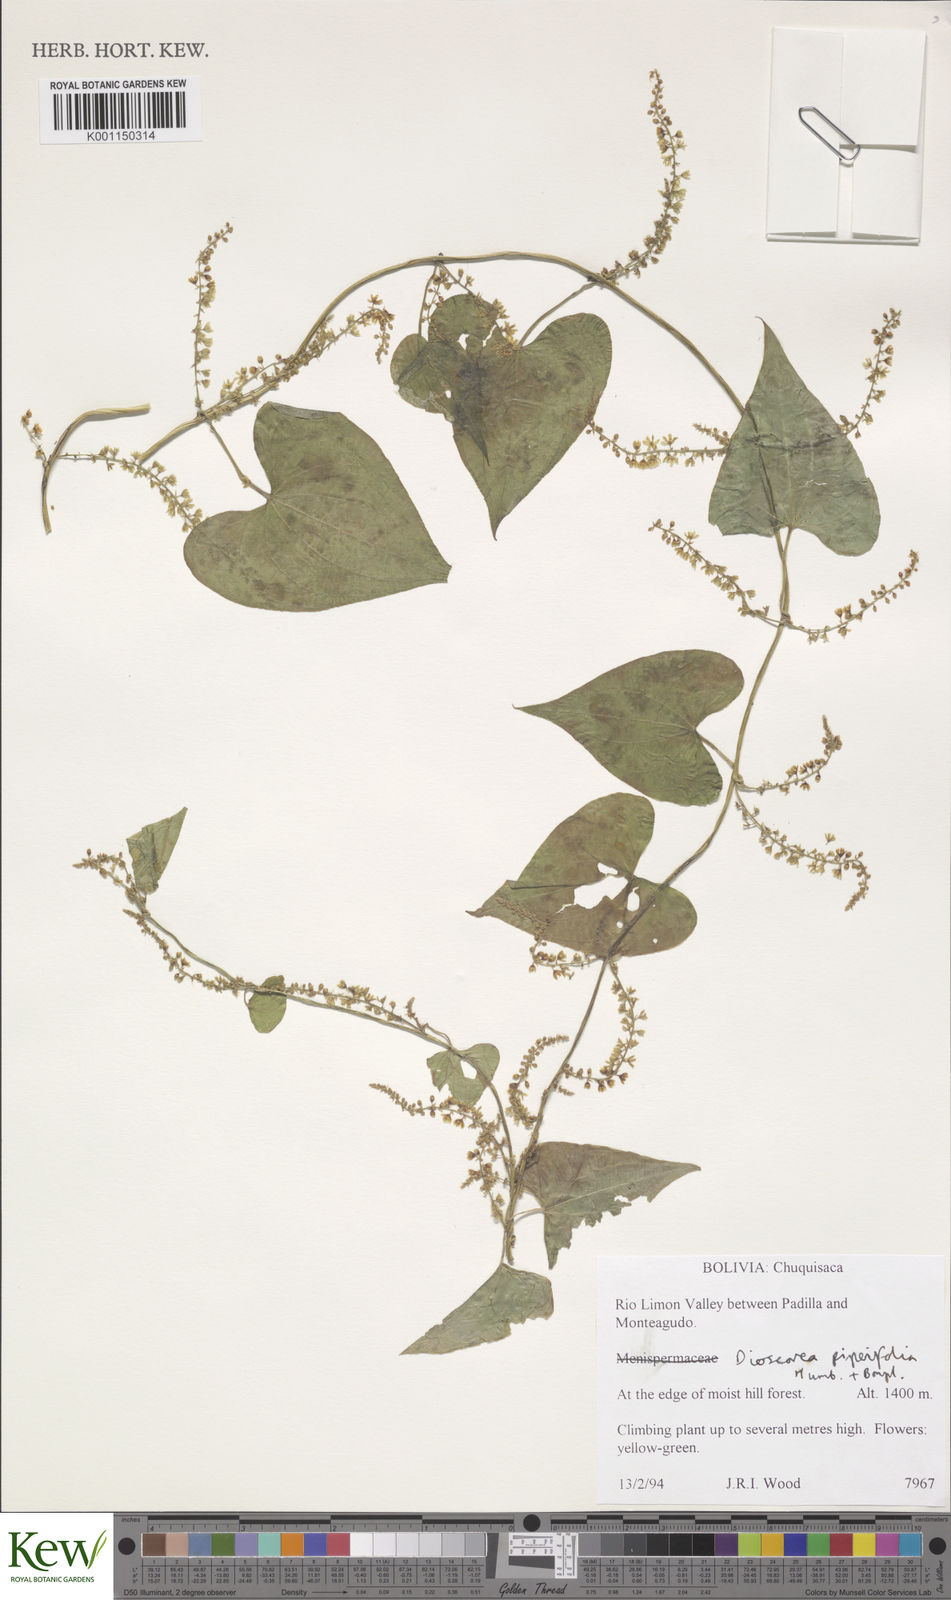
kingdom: Plantae
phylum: Tracheophyta
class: Liliopsida
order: Dioscoreales
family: Dioscoreaceae
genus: Dioscorea
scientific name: Dioscorea piperifolia
